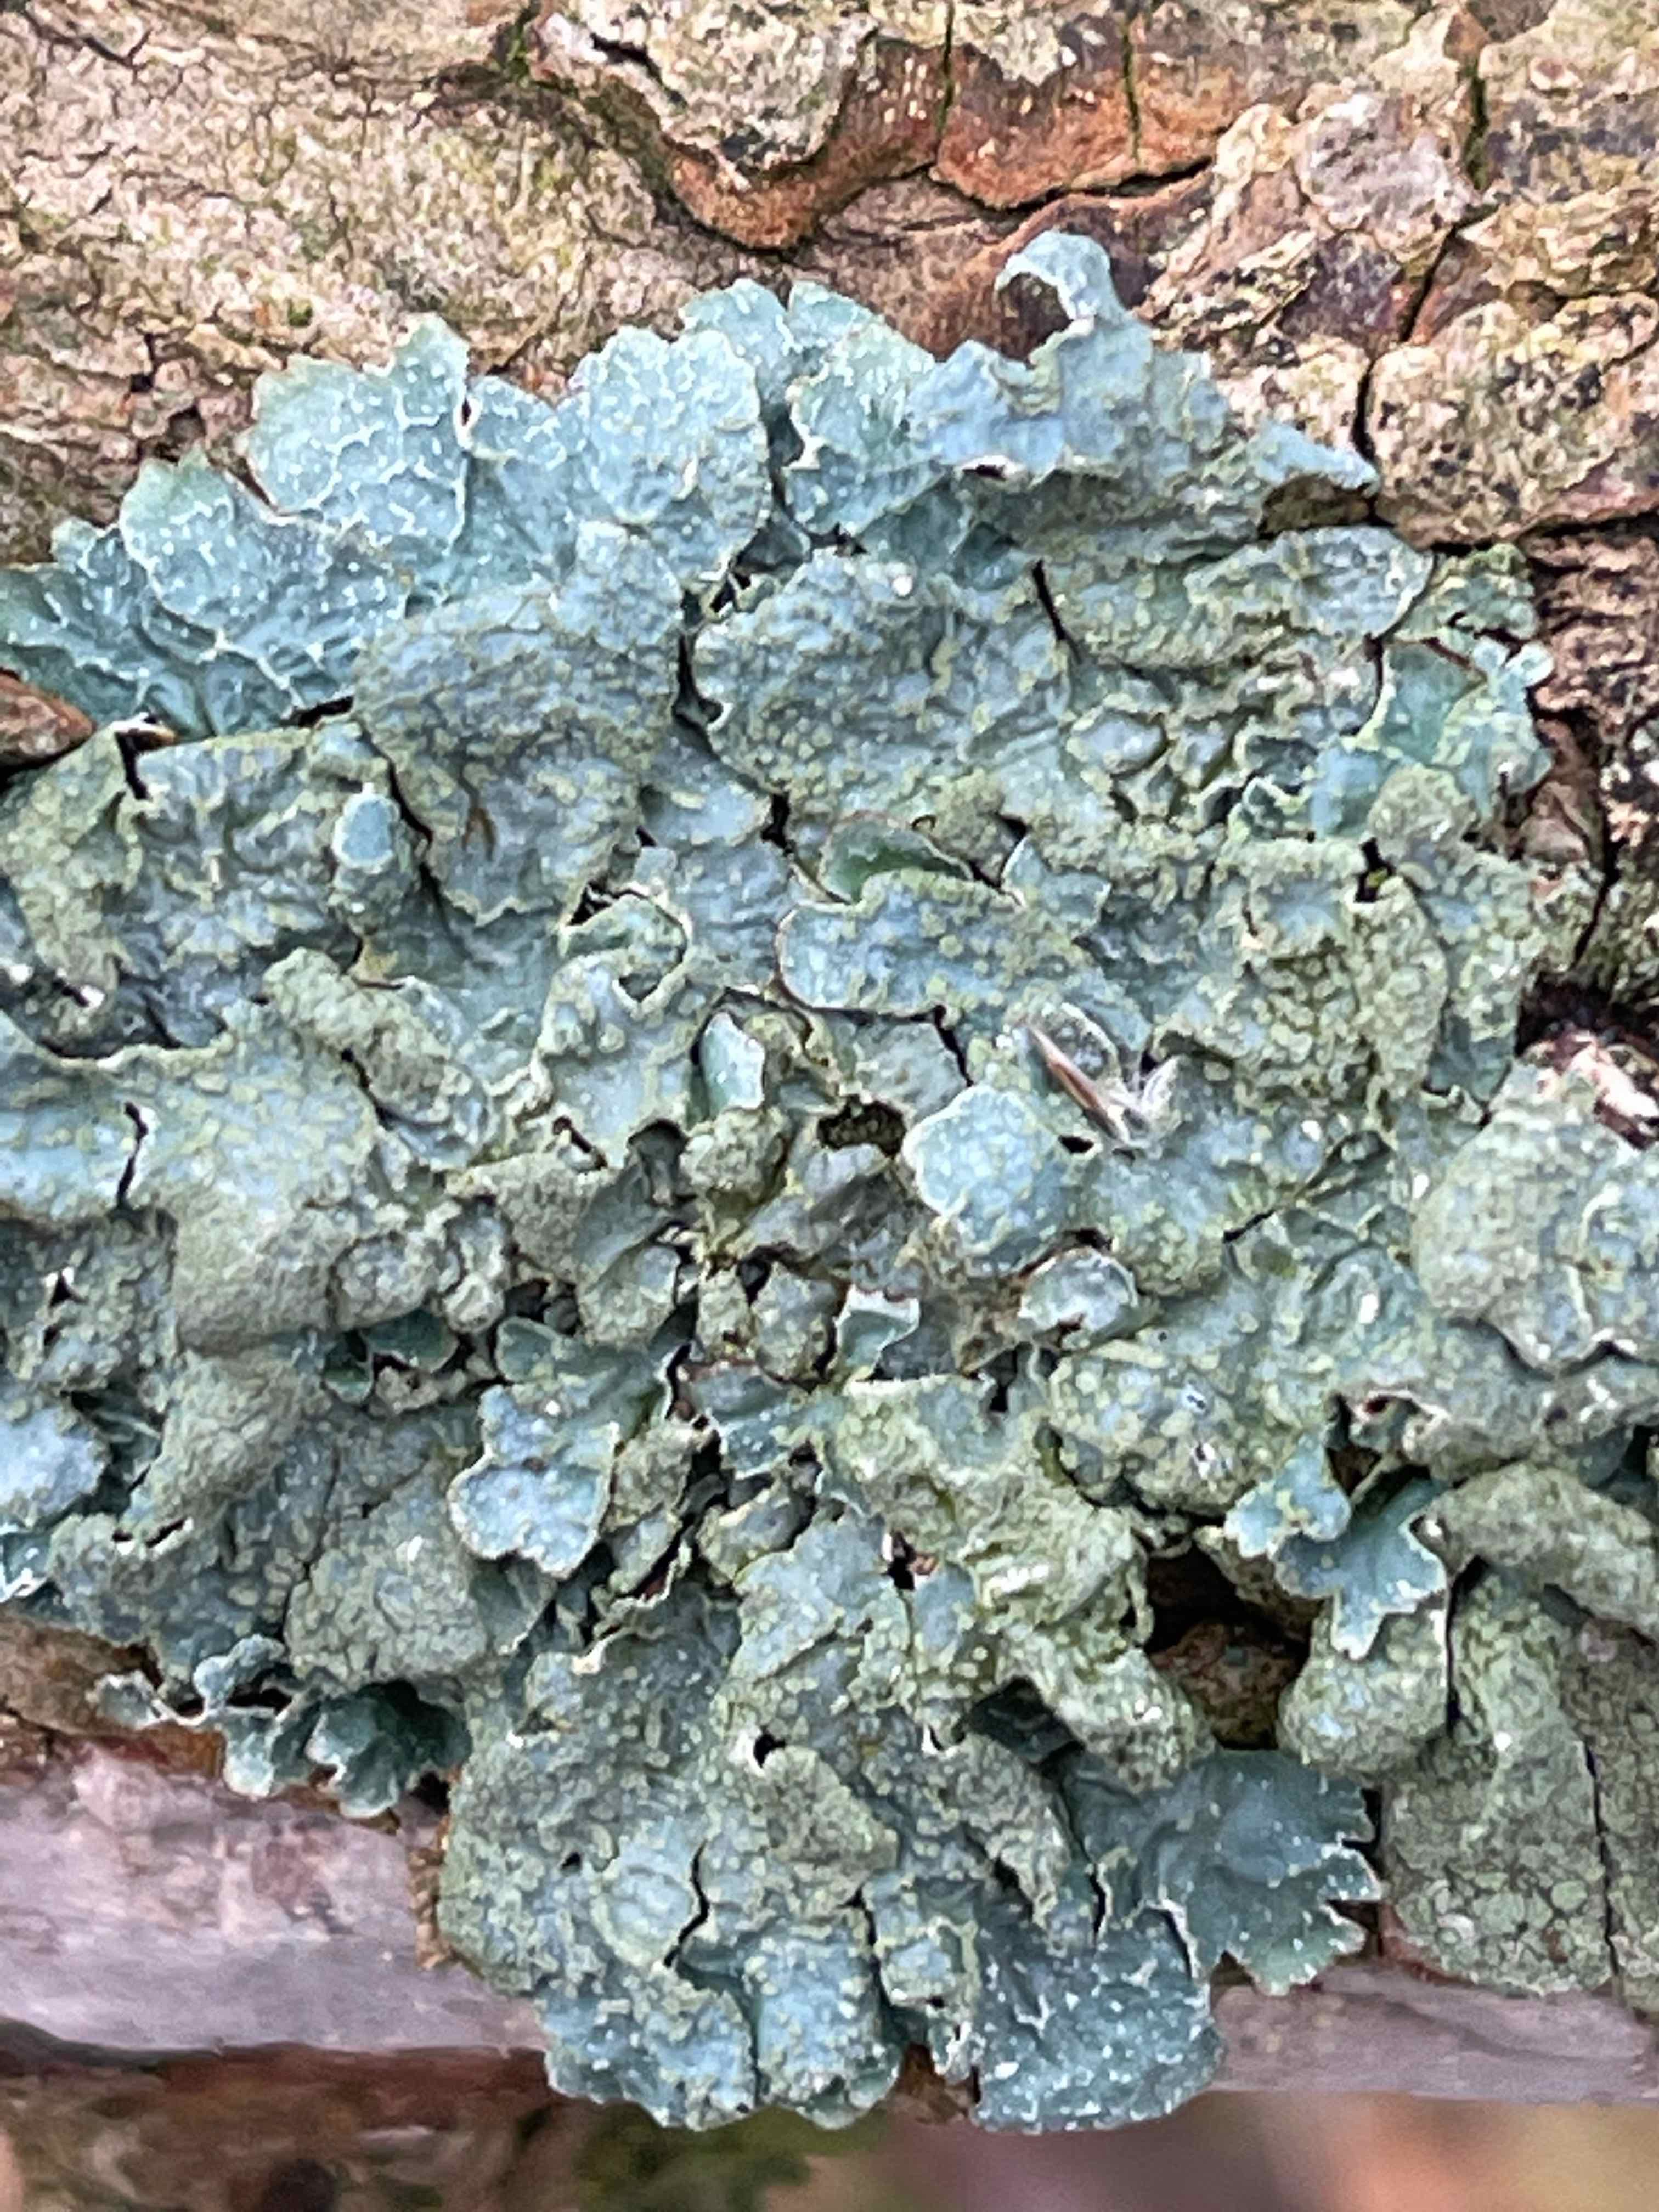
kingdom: Fungi
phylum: Ascomycota
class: Lecanoromycetes
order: Lecanorales
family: Parmeliaceae
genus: Parmelia
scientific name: Parmelia sulcata
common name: rynket skållav
